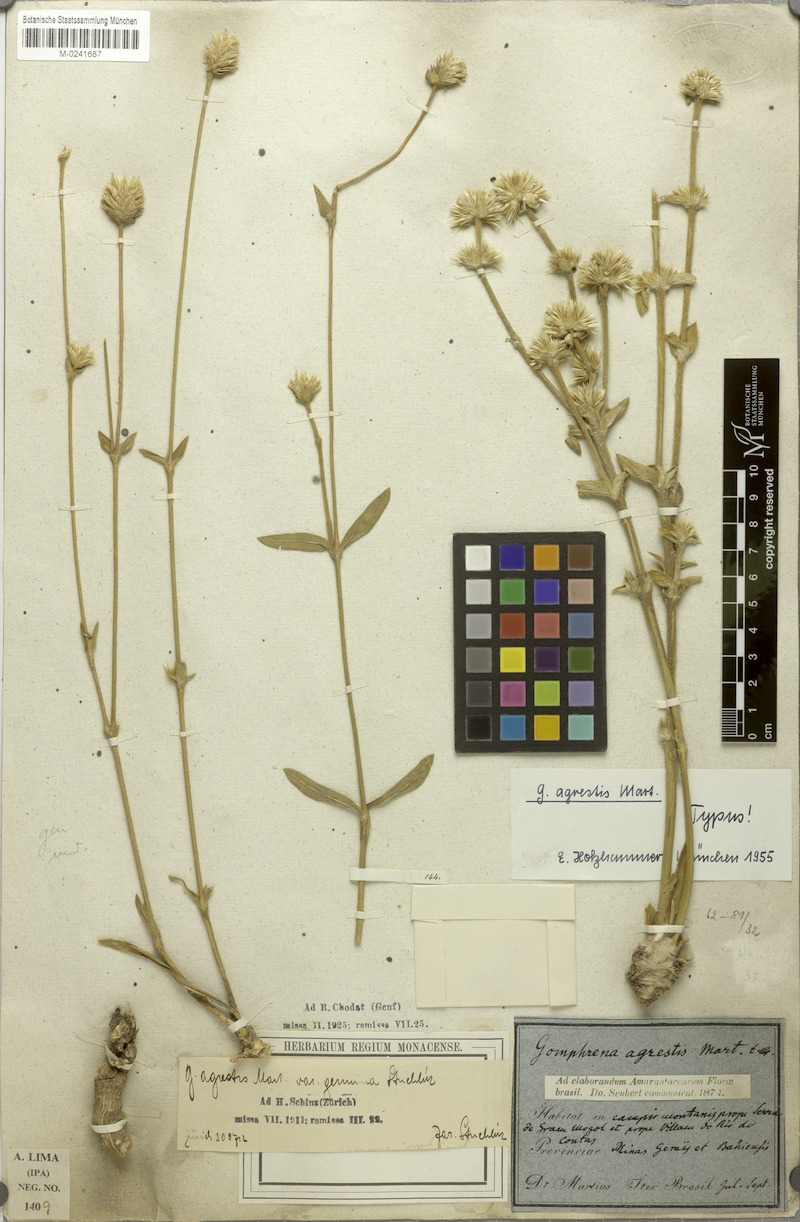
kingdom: Plantae
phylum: Tracheophyta
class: Magnoliopsida
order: Caryophyllales
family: Amaranthaceae
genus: Gomphrena
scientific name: Gomphrena agrestis
